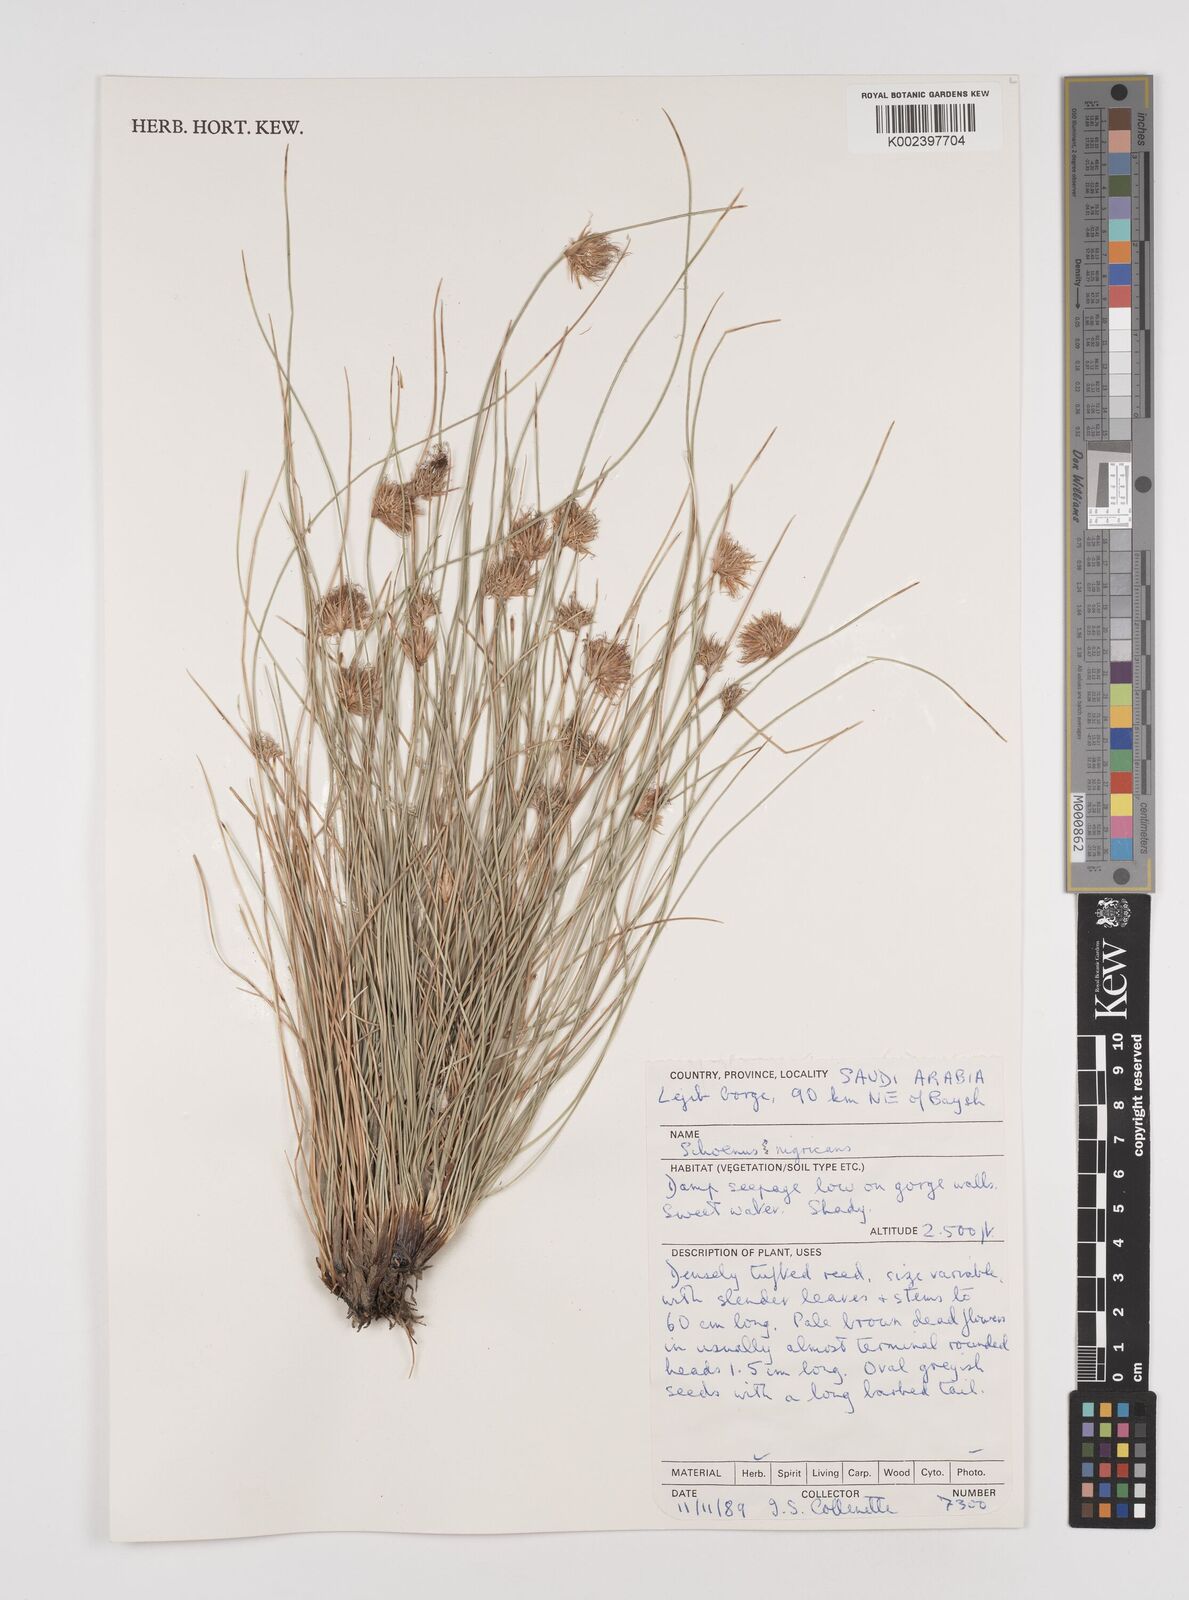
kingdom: Plantae
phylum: Tracheophyta
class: Liliopsida
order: Poales
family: Cyperaceae
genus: Schoenus
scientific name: Schoenus nigricans
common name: Black bog-rush
